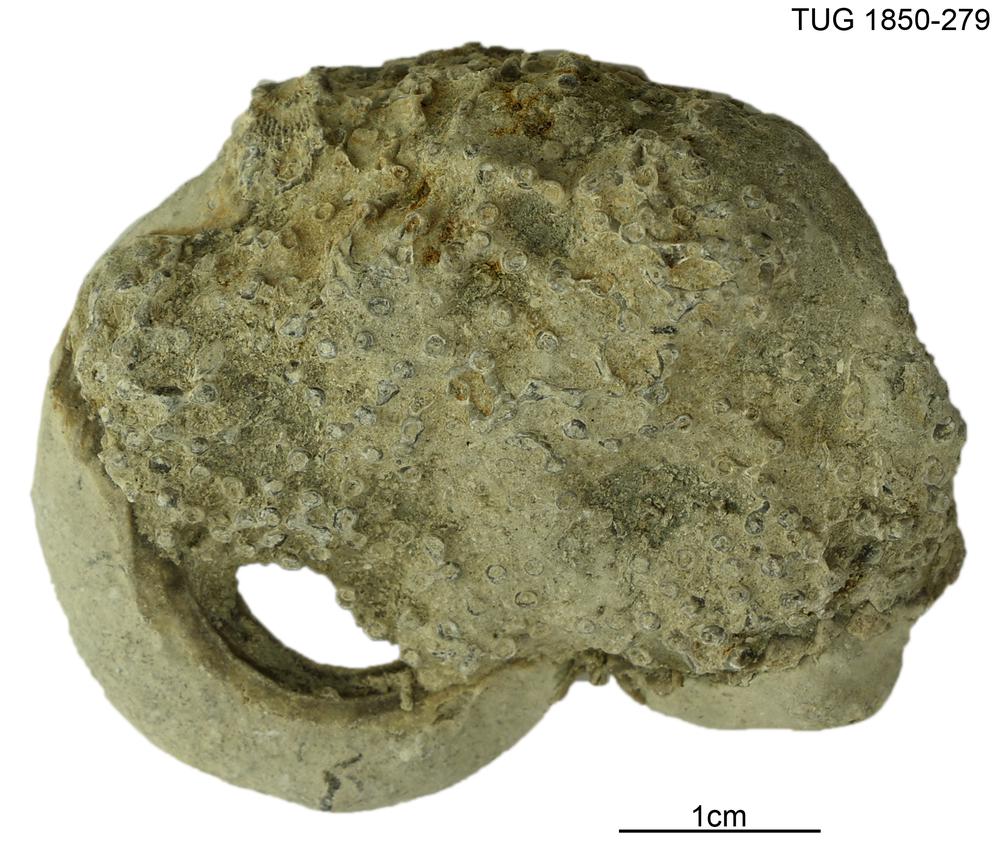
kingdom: Animalia
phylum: Cnidaria
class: Anthozoa
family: Syringoporidae
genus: Syringopora
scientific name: Syringopora
